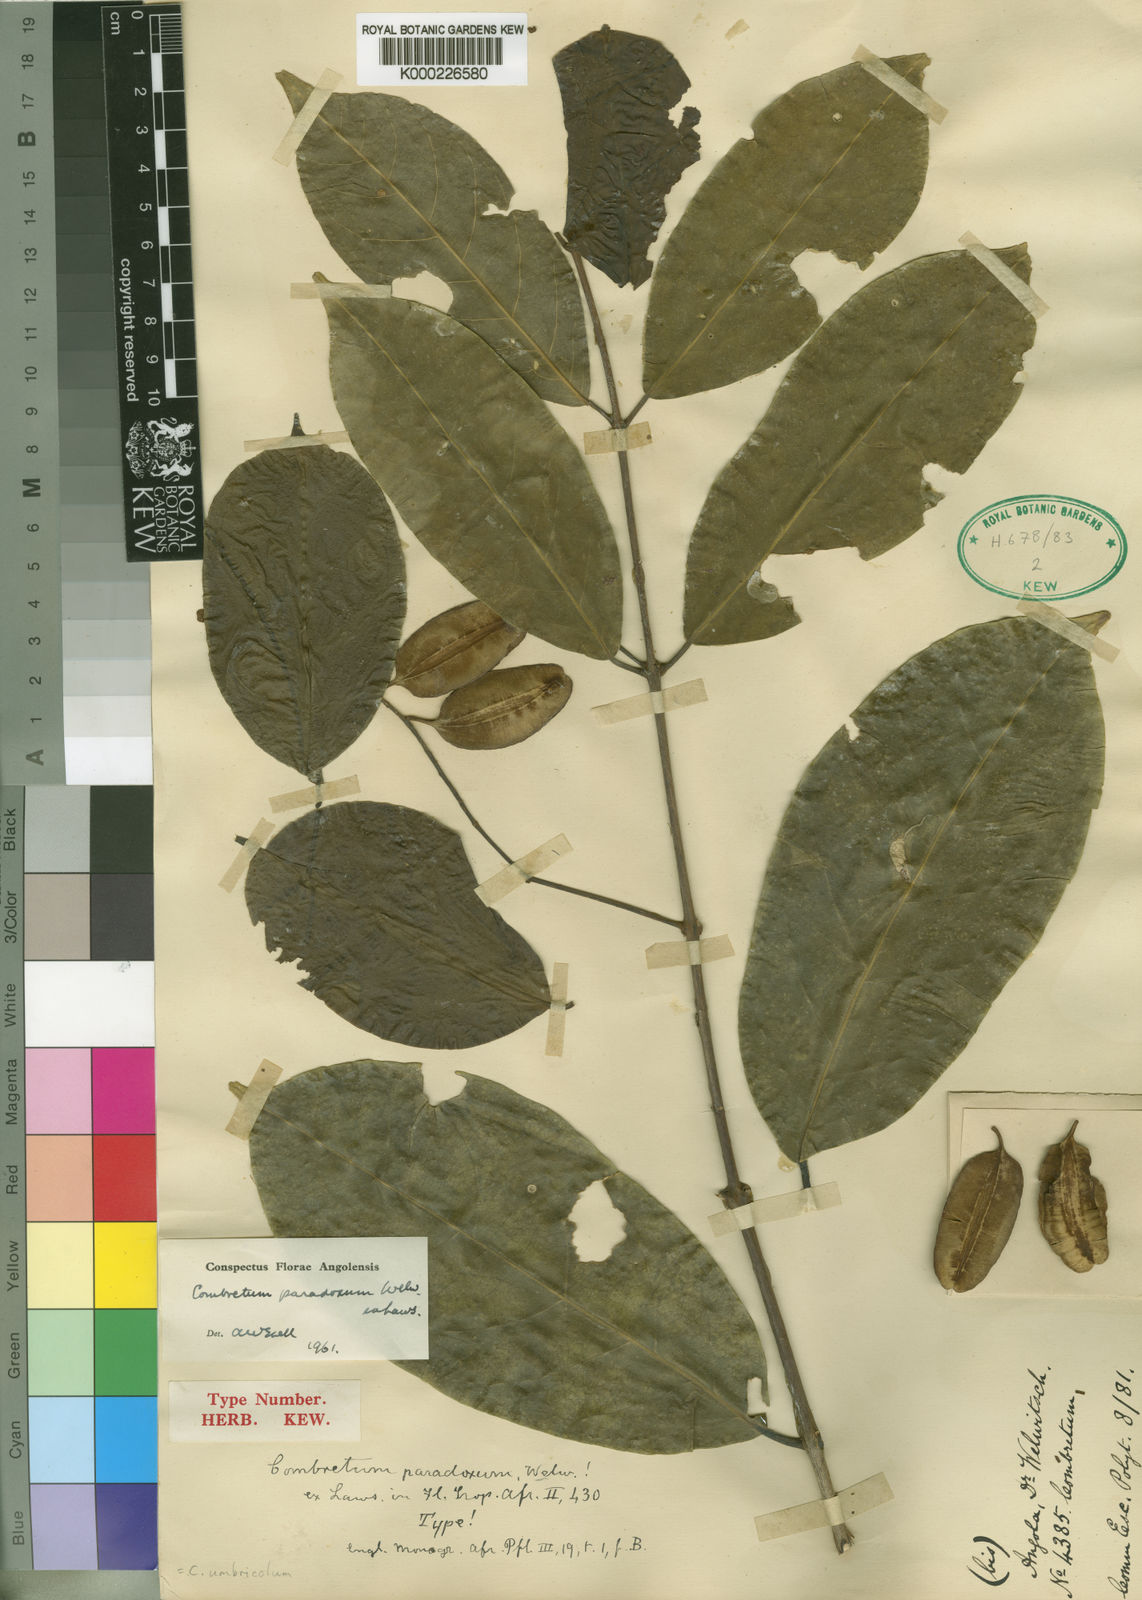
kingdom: Plantae
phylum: Tracheophyta
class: Magnoliopsida
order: Myrtales
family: Combretaceae
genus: Combretum
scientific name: Combretum paradoxum
